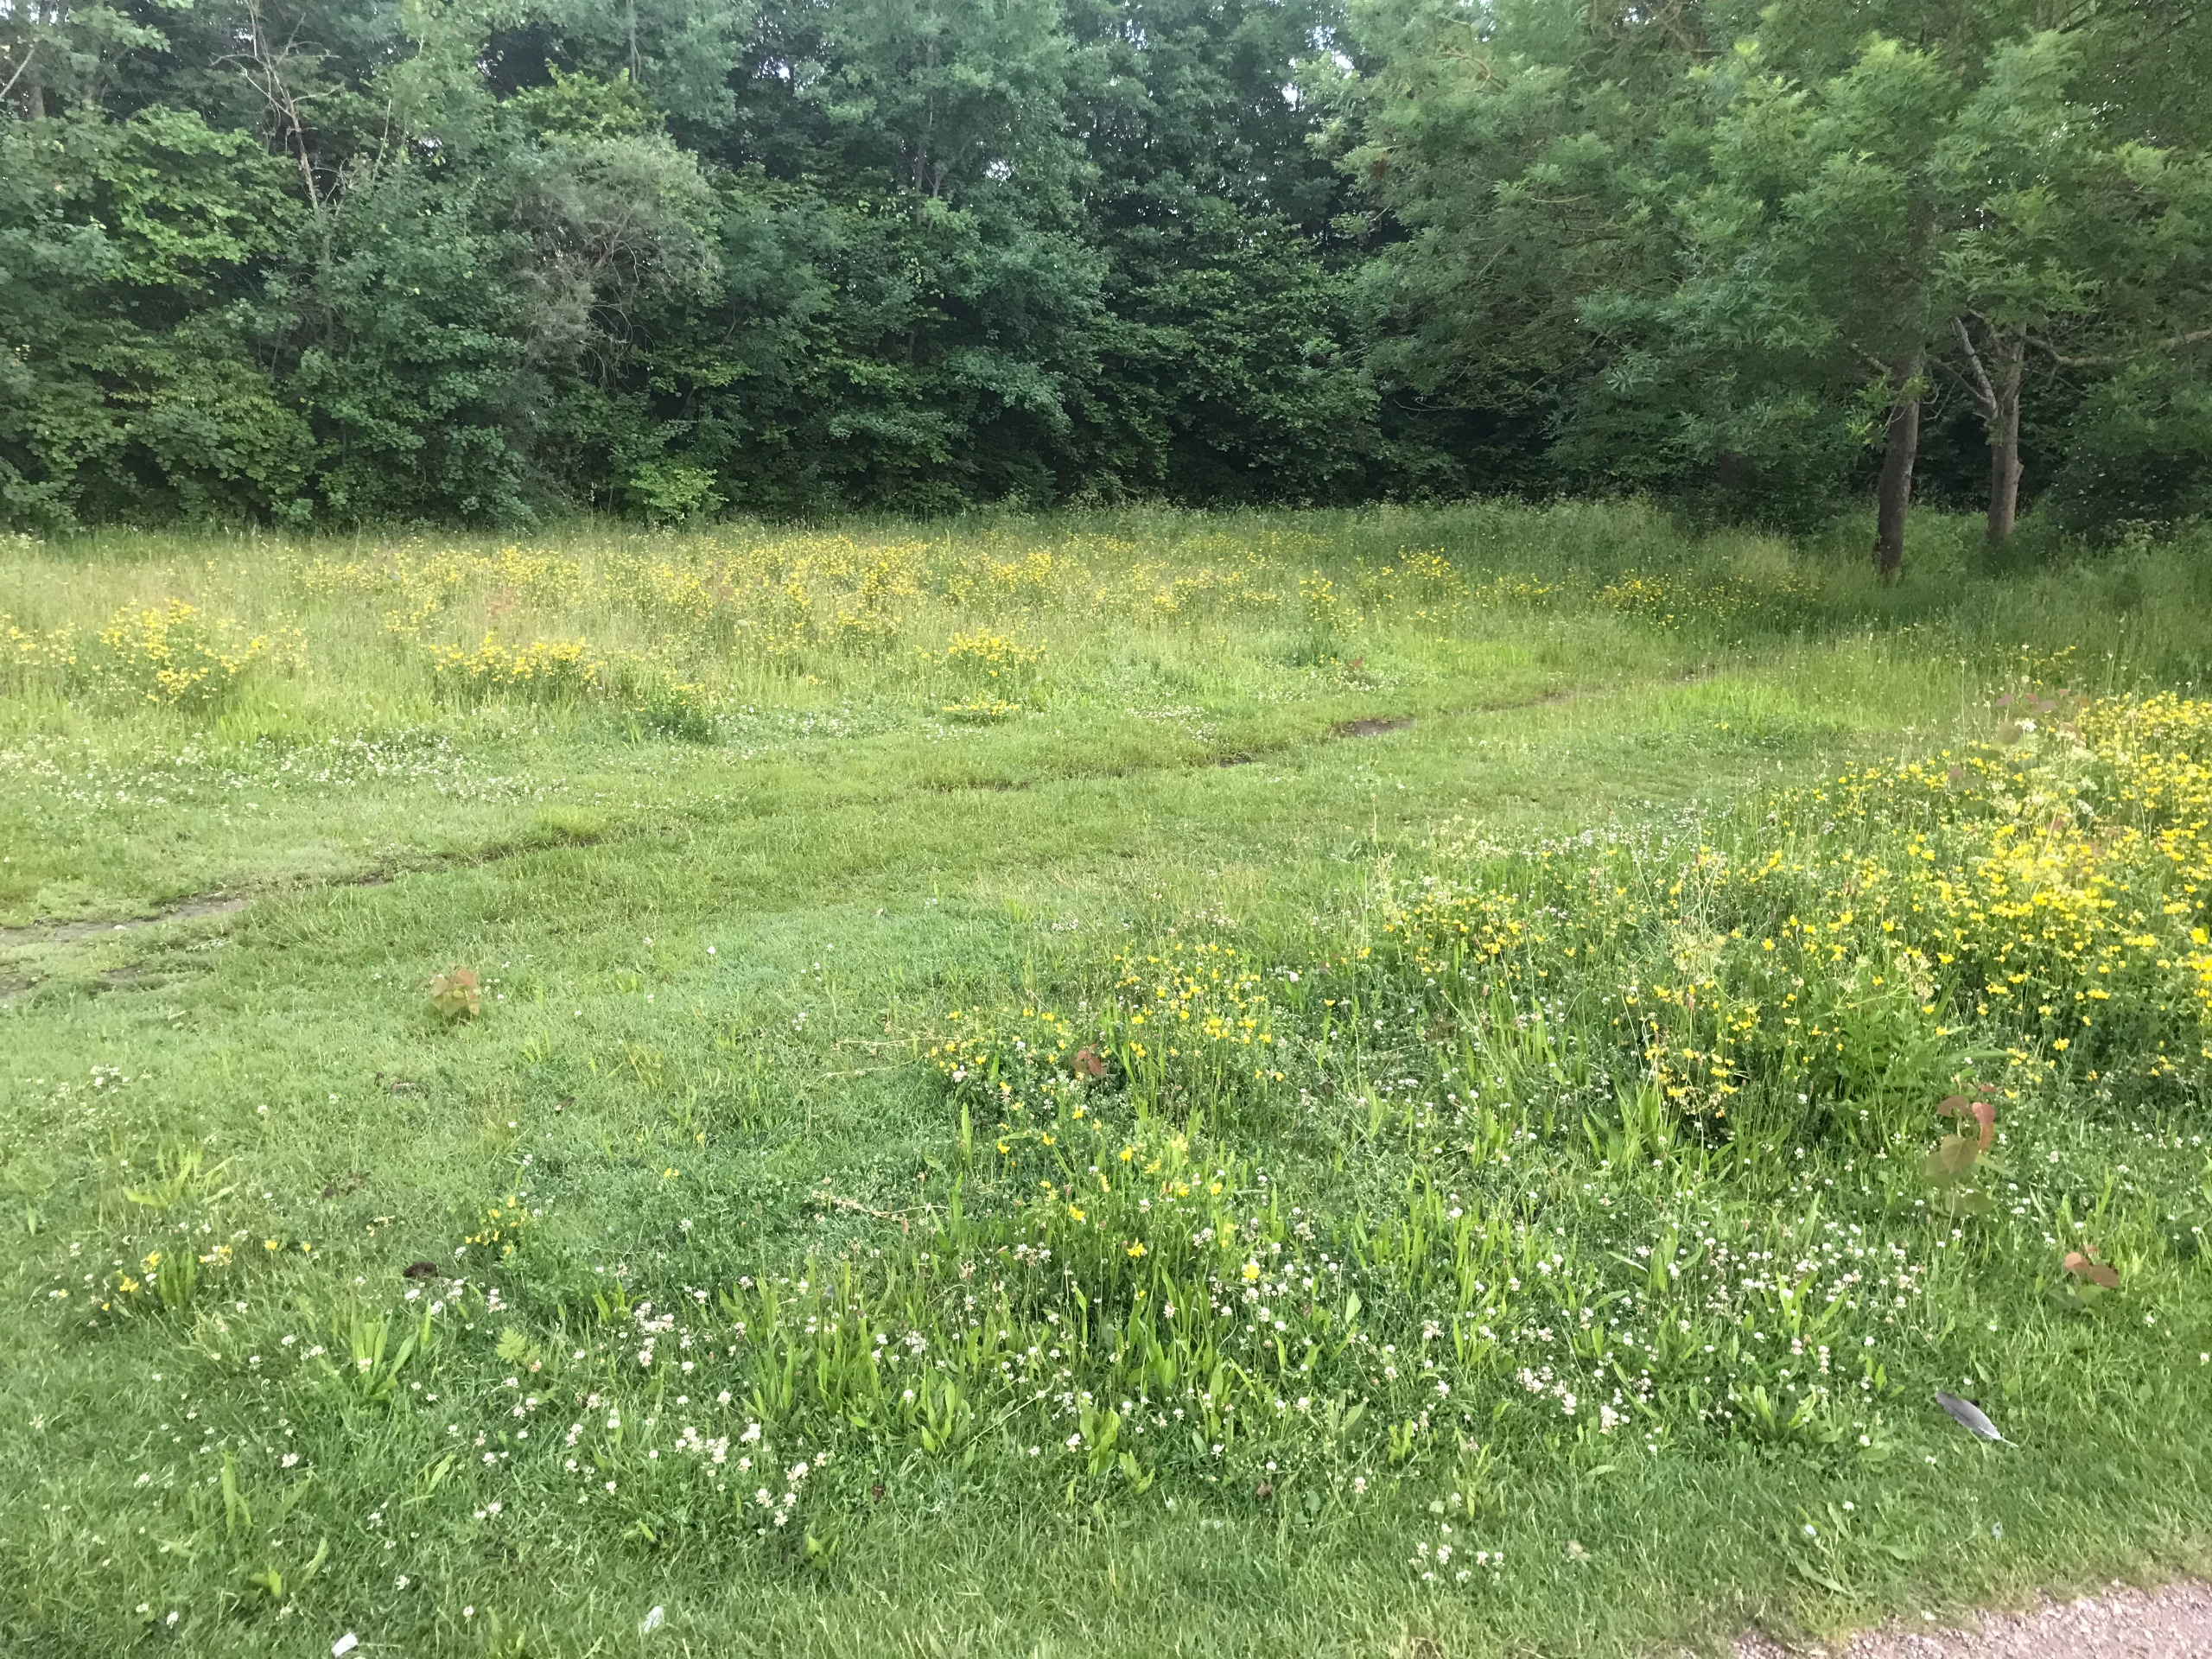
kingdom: Plantae
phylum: Tracheophyta
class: Magnoliopsida
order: Fabales
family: Fabaceae
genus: Lotus
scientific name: Lotus corniculatus
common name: Almindelig kællingetand
